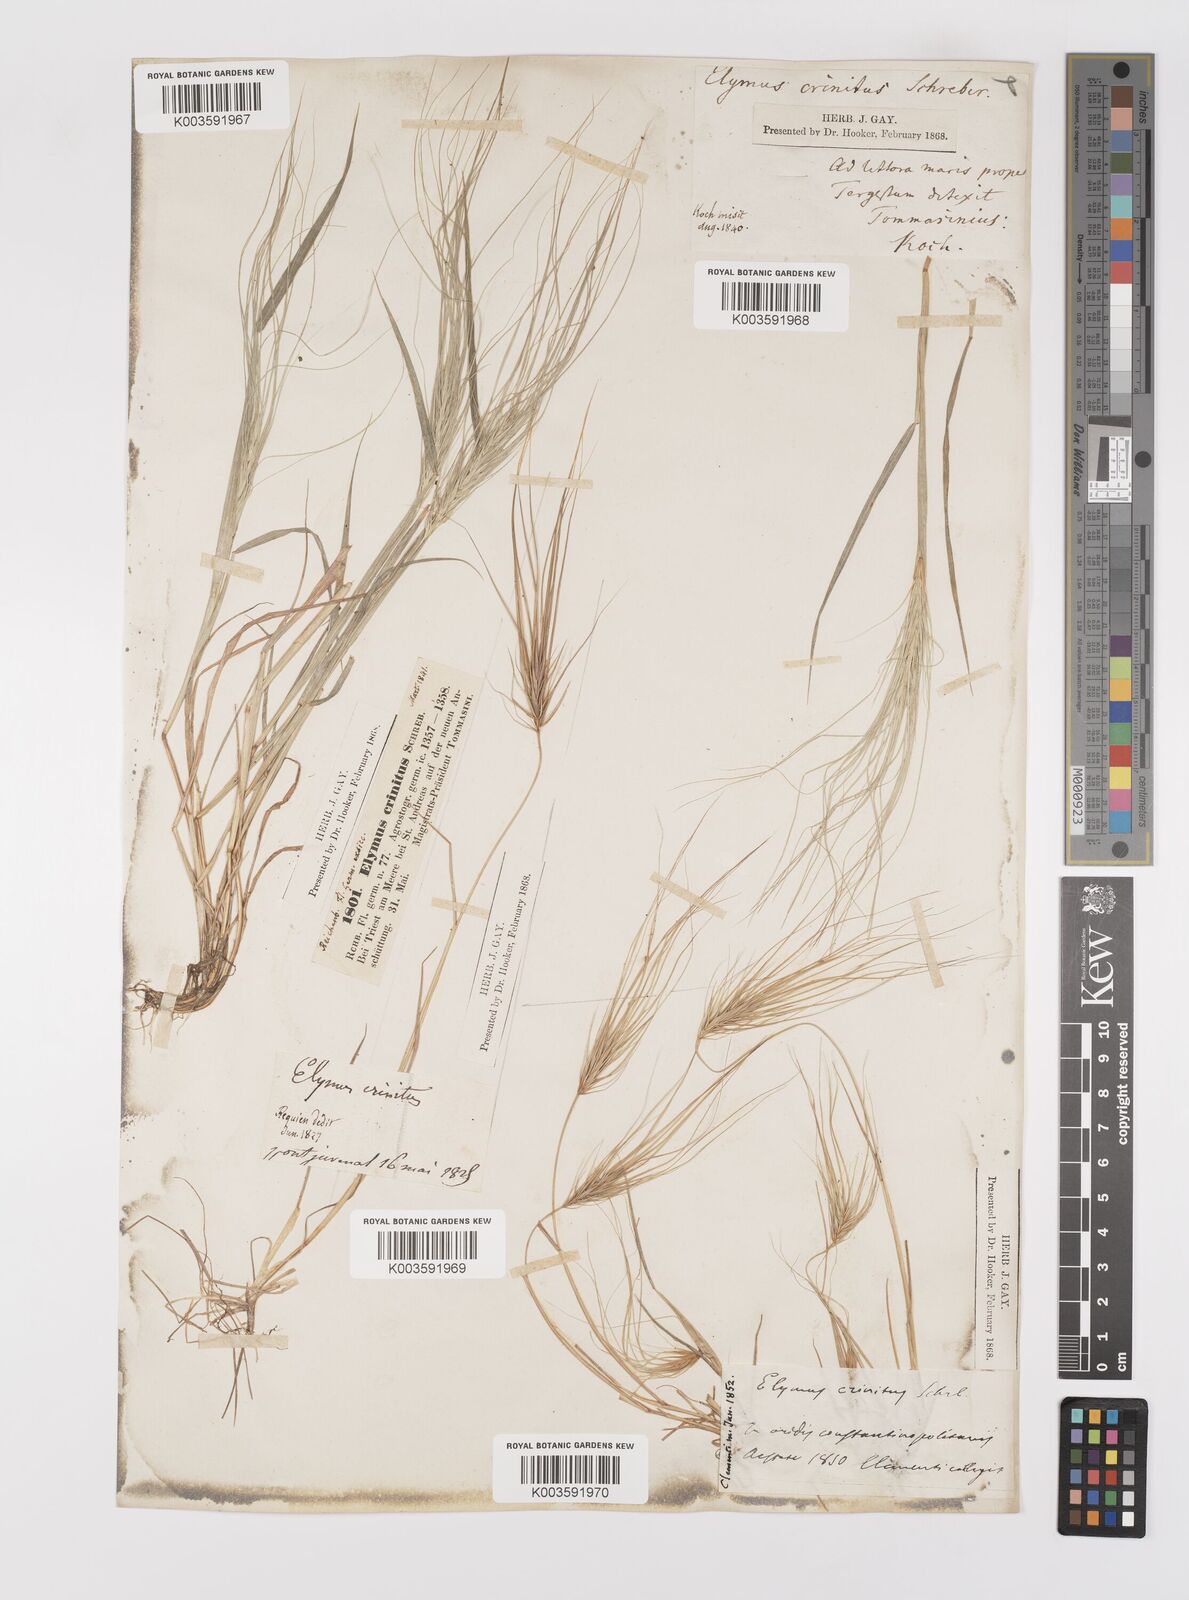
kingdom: Plantae
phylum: Tracheophyta
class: Liliopsida
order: Poales
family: Poaceae
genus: Taeniatherum
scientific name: Taeniatherum caput-medusae
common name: Medusahead
